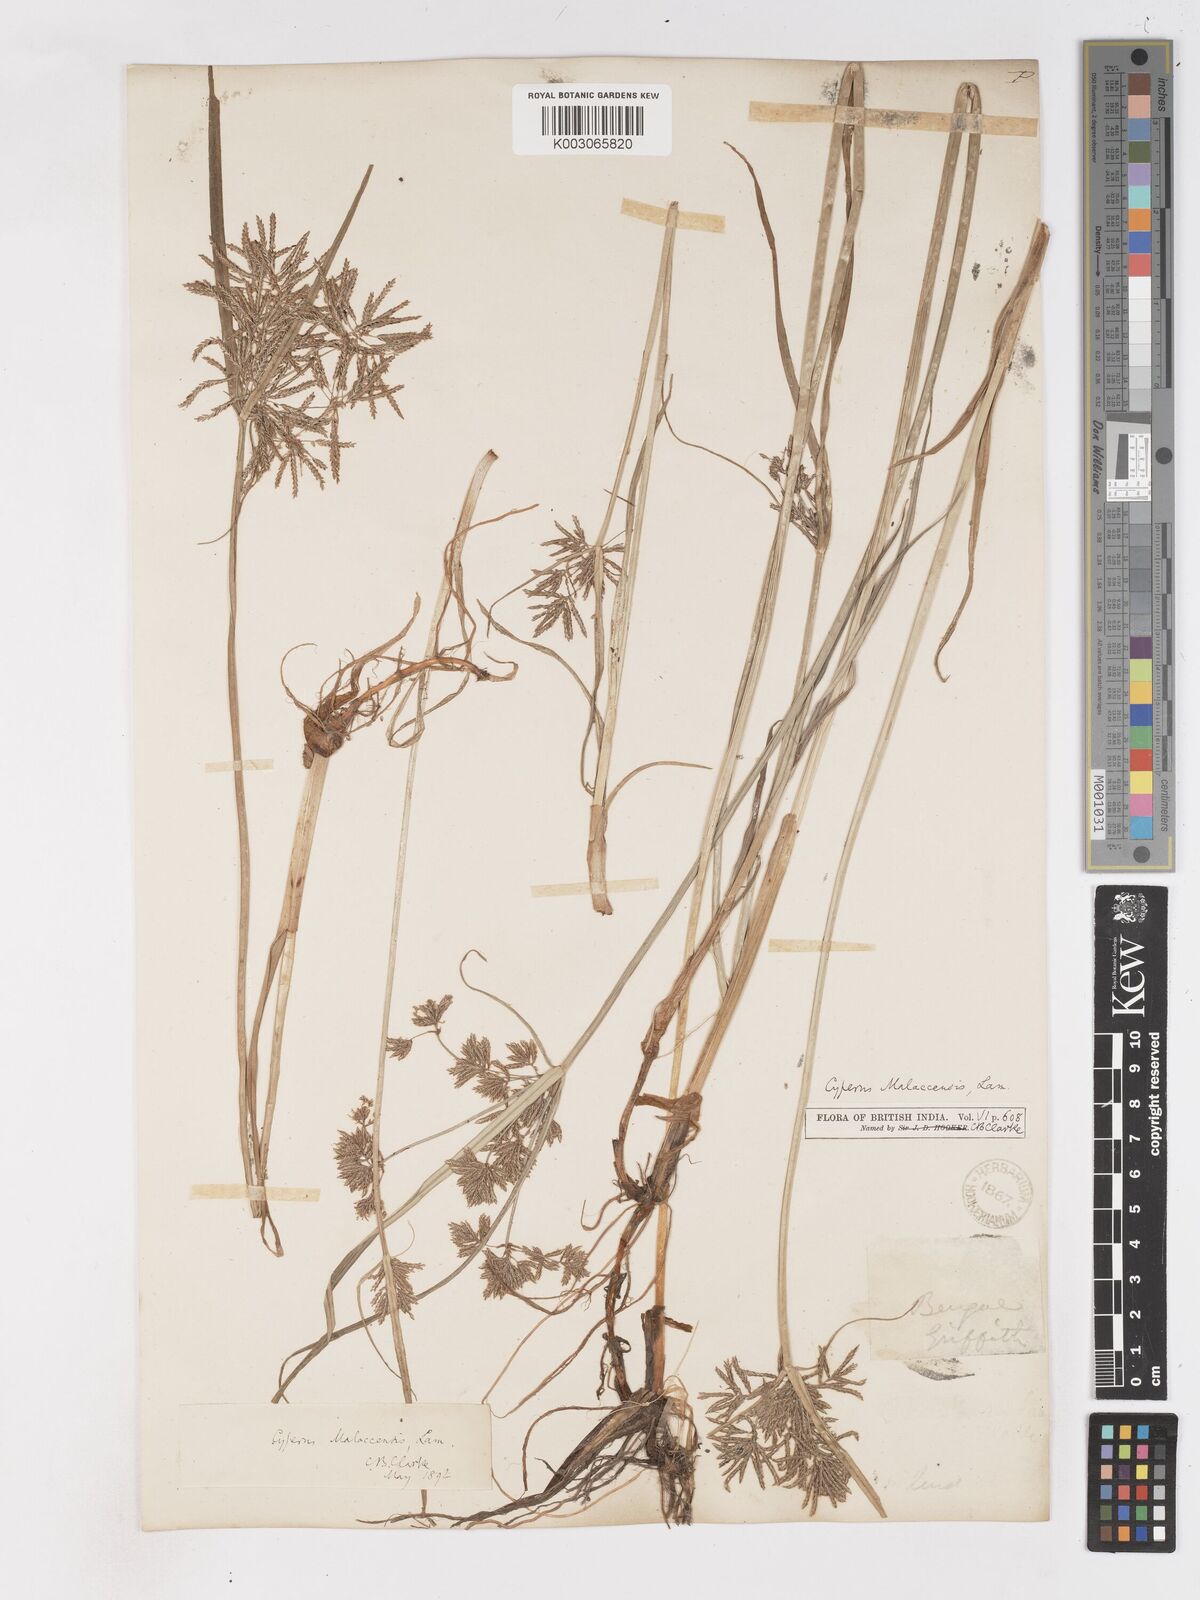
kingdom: Plantae
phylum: Tracheophyta
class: Liliopsida
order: Poales
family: Cyperaceae
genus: Cyperus
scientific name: Cyperus malaccensis
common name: Shichito matgrass
